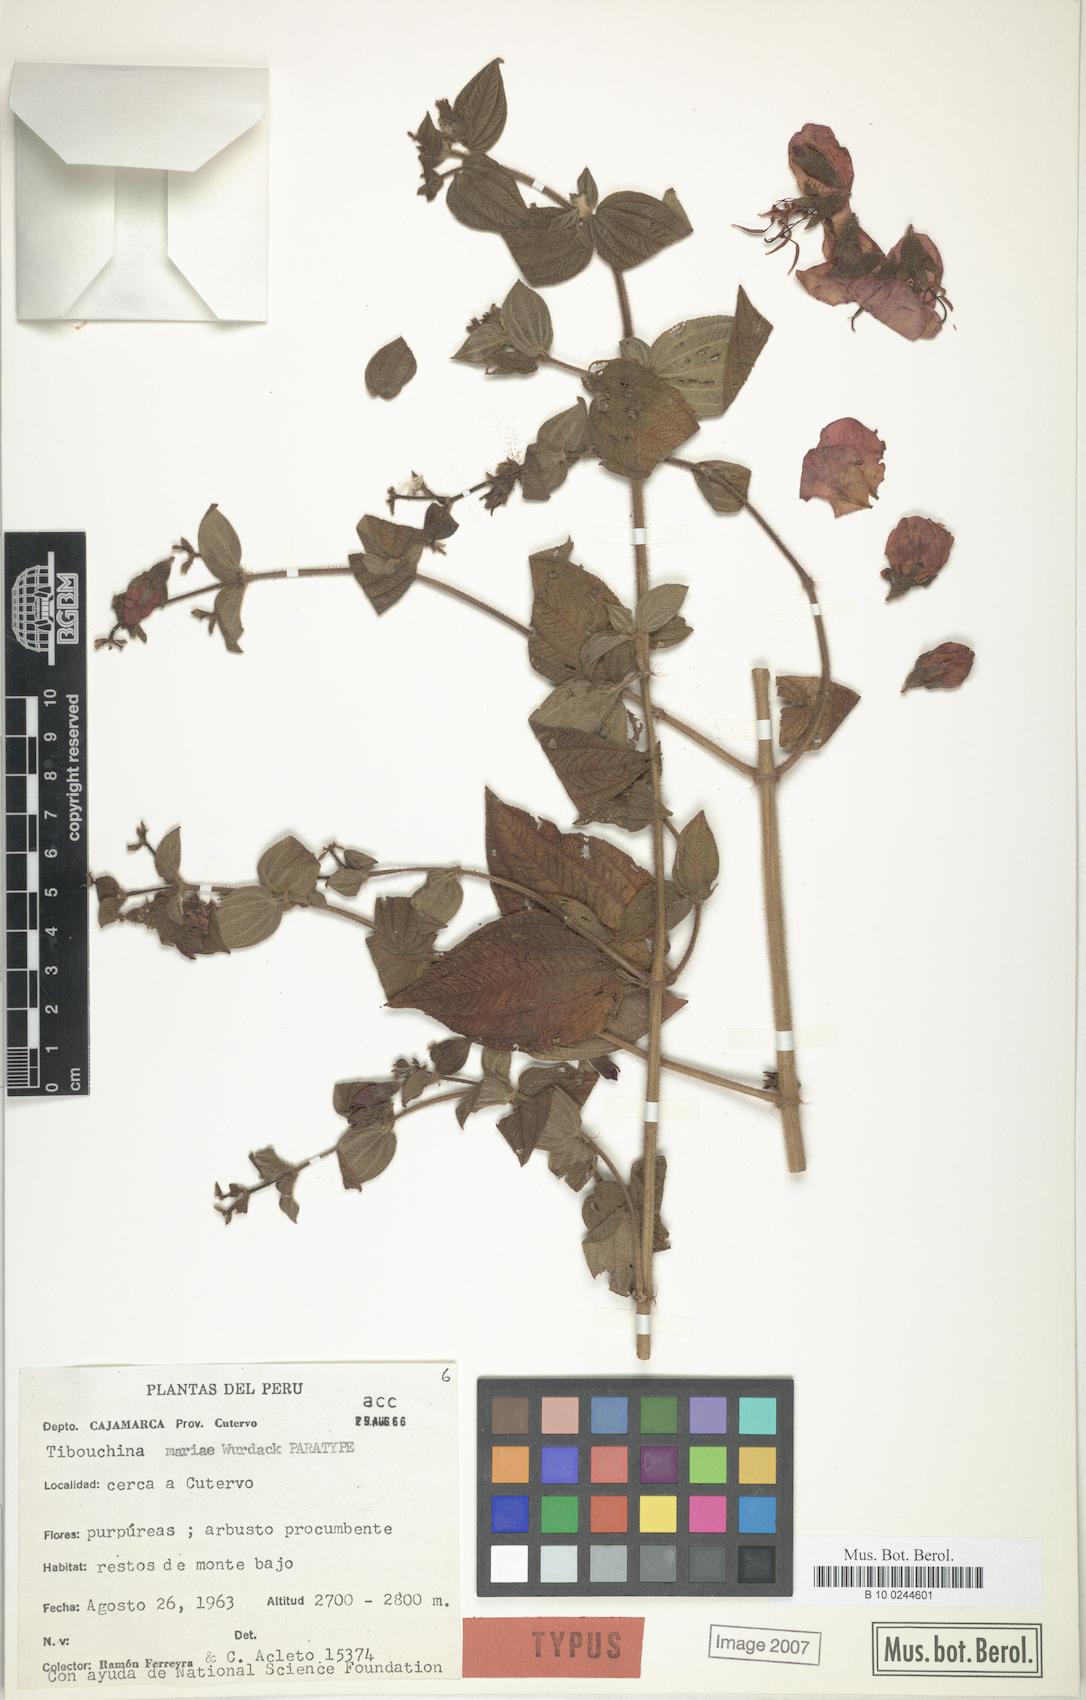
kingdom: Plantae
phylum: Tracheophyta
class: Magnoliopsida
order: Myrtales
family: Melastomataceae
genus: Chaetogastra
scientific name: Chaetogastra mariae
